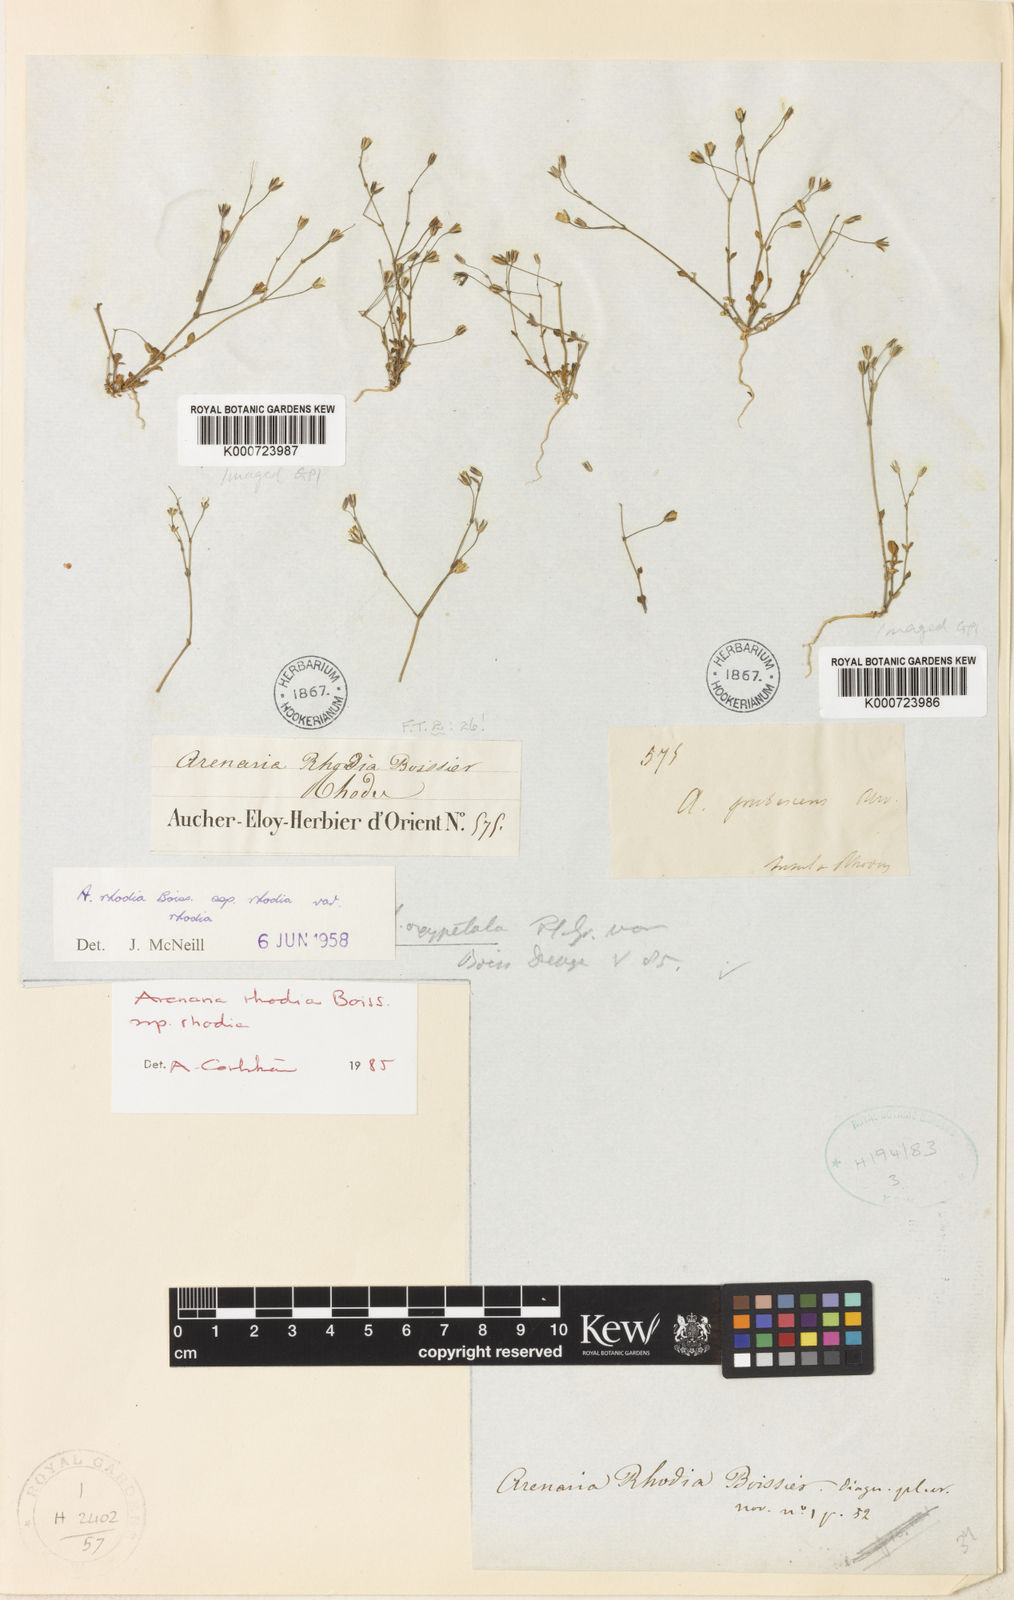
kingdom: Plantae
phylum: Tracheophyta
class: Magnoliopsida
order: Caryophyllales
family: Caryophyllaceae
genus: Arenaria
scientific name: Arenaria rhodia
